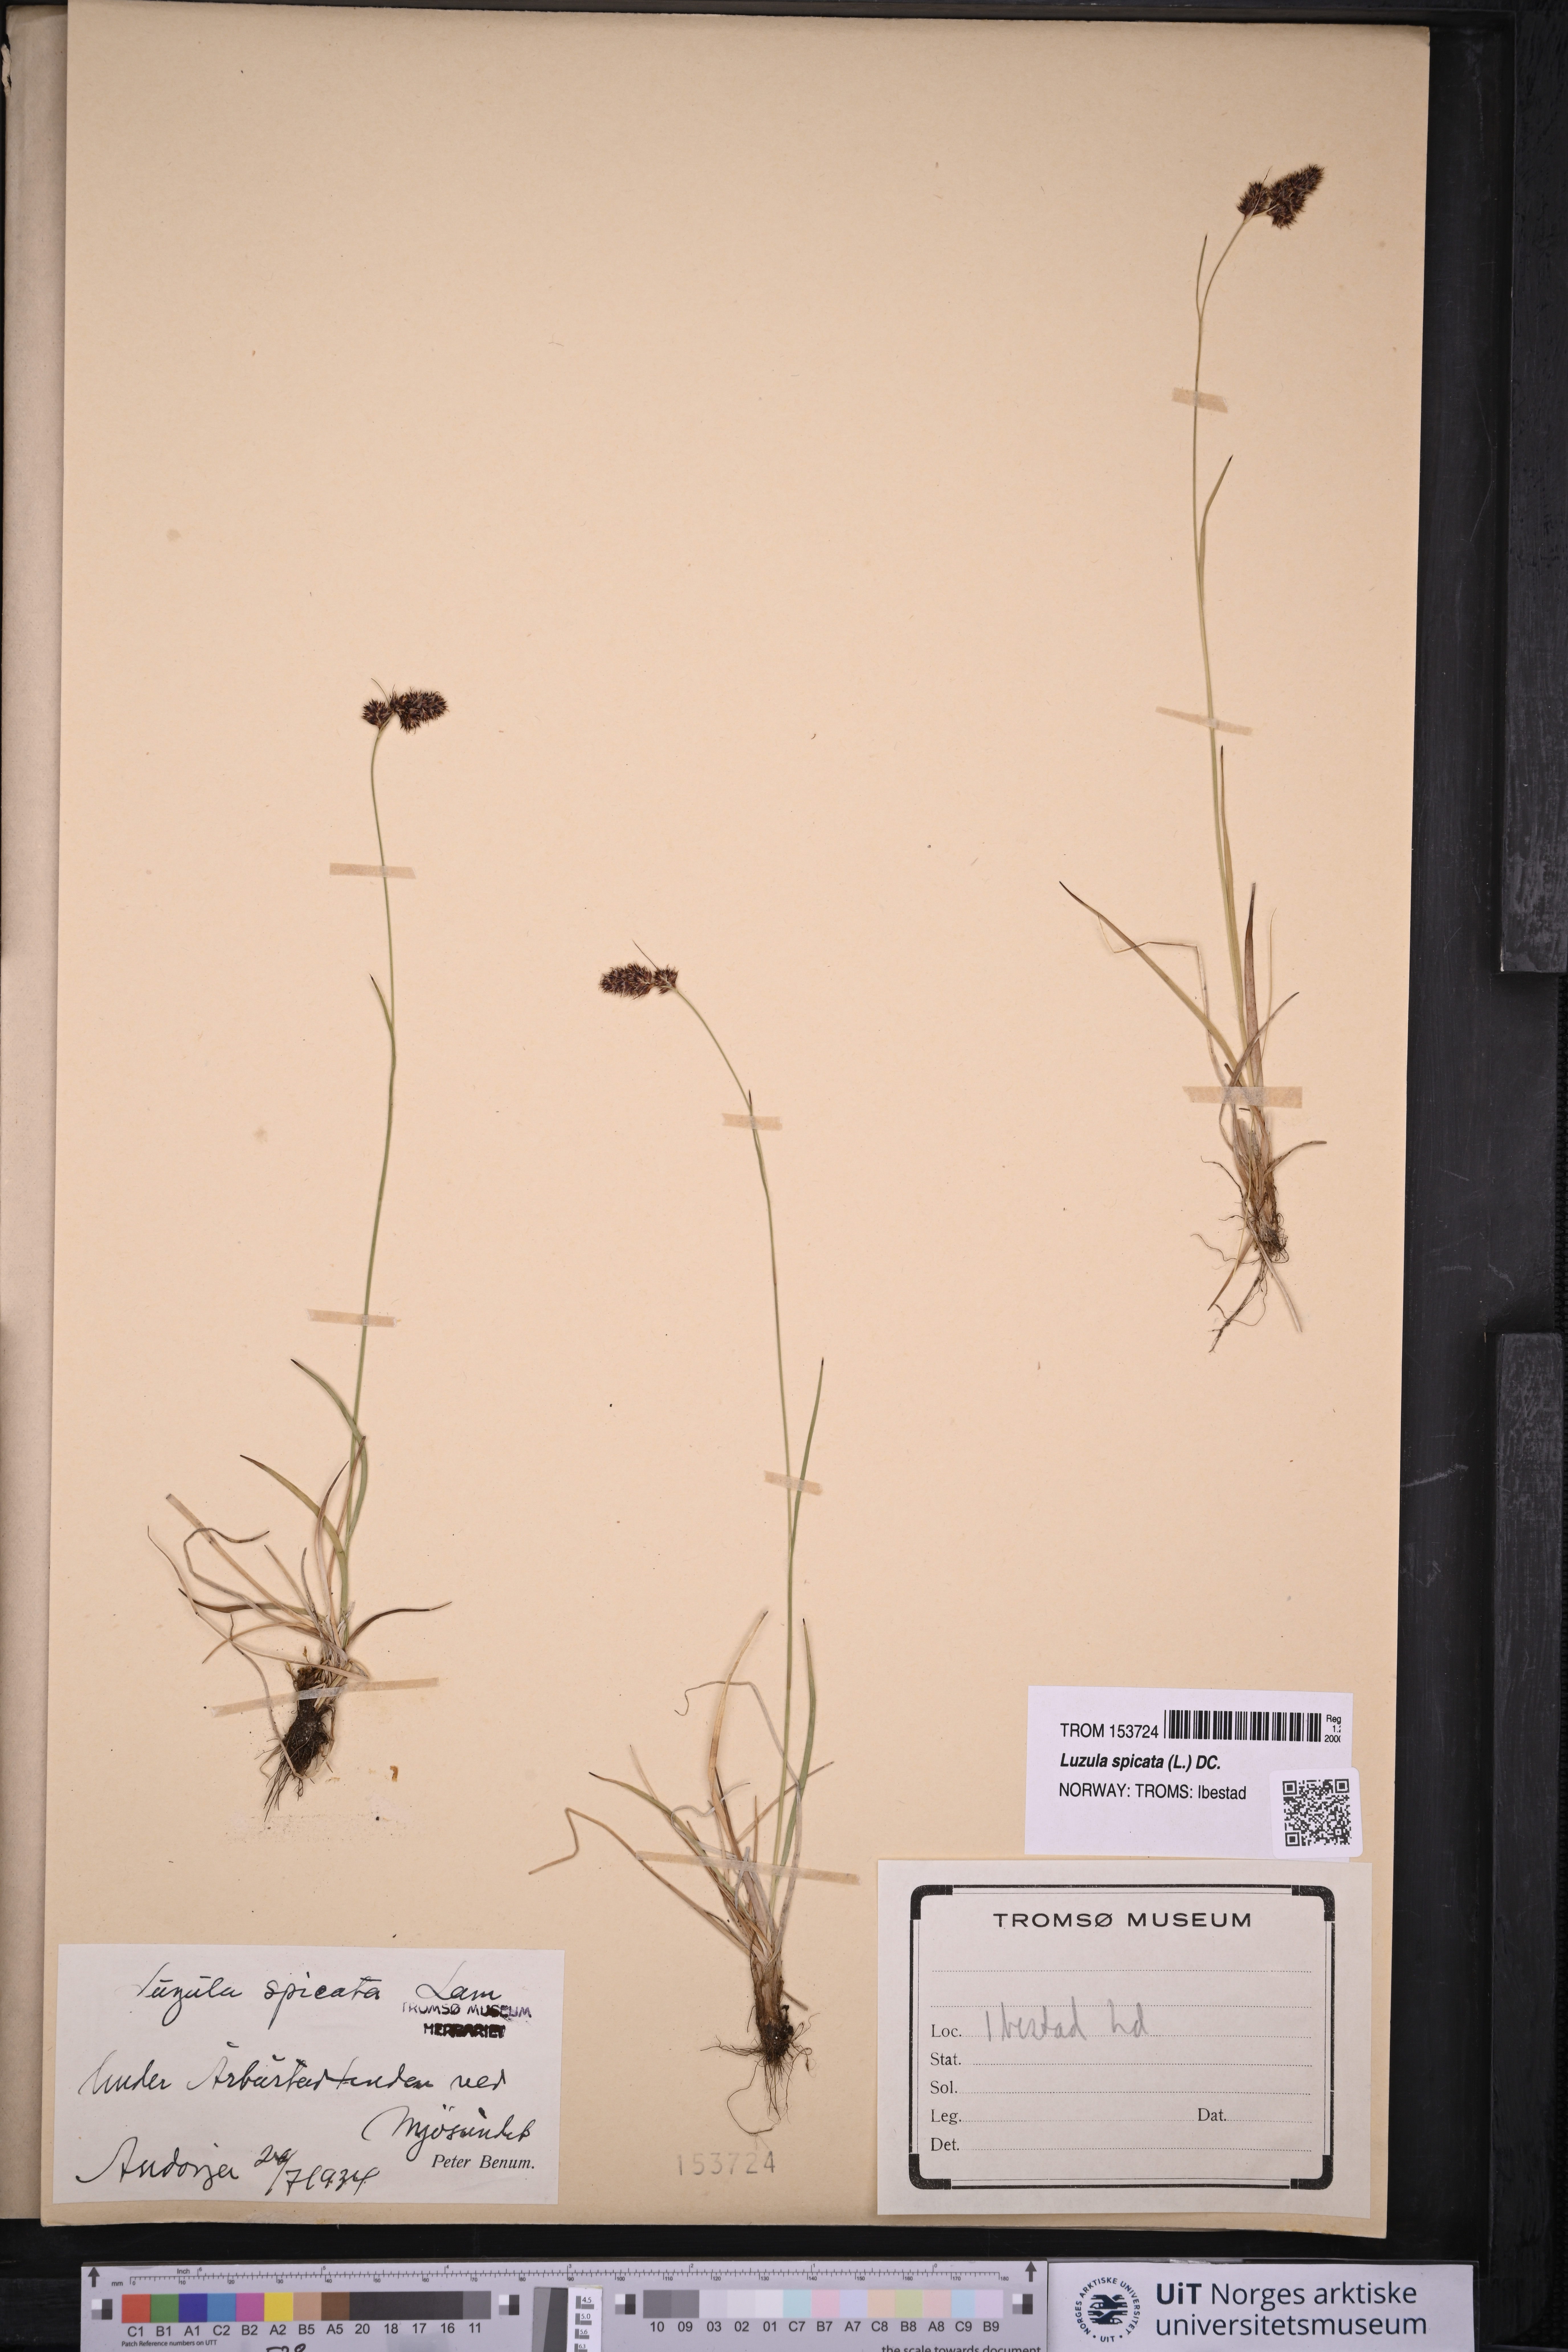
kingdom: Plantae
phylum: Tracheophyta
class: Liliopsida
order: Poales
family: Juncaceae
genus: Luzula
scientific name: Luzula spicata
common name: Spiked wood-rush
